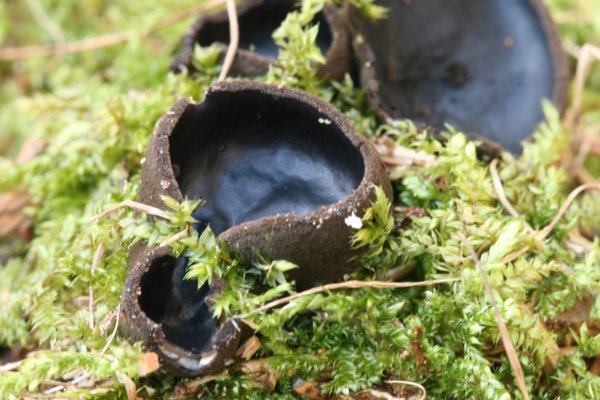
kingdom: Fungi
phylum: Ascomycota
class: Pezizomycetes
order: Pezizales
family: Sarcosomataceae
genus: Pseudoplectania
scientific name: Pseudoplectania nigrella
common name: almindelig sortbæger
